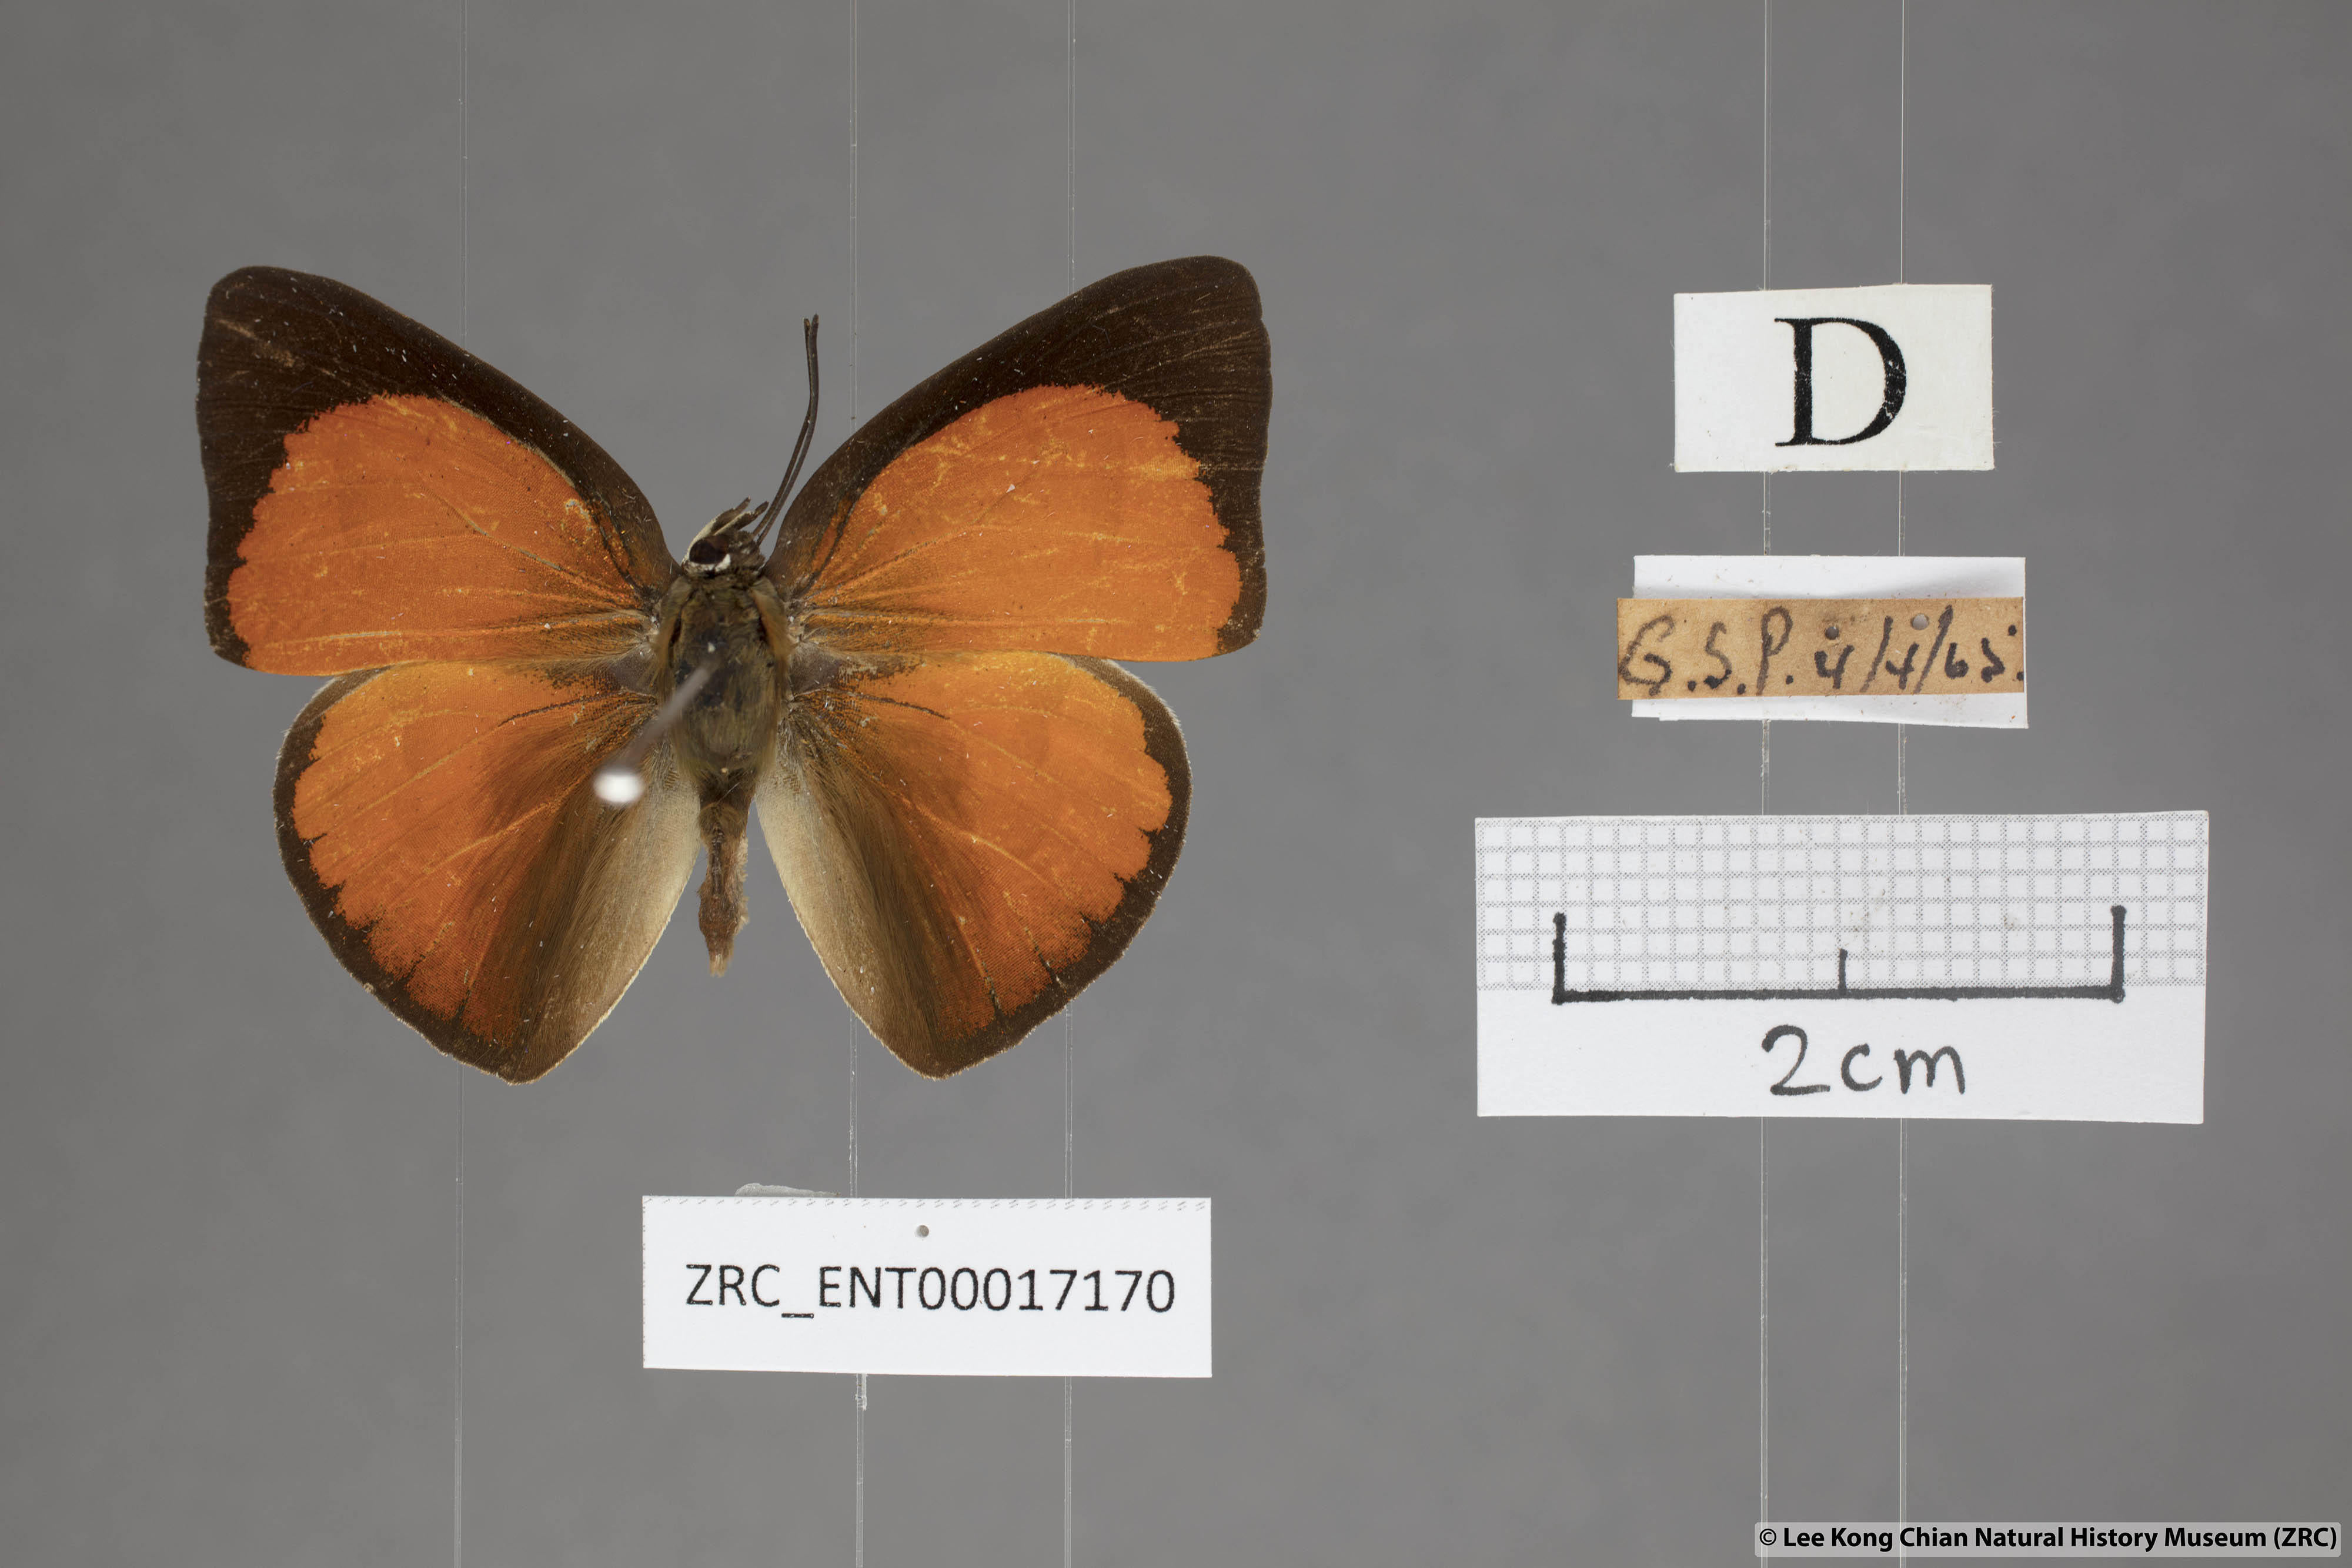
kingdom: Animalia
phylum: Arthropoda
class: Insecta
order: Lepidoptera
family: Lycaenidae
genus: Curetis
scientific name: Curetis tagalica
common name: Southern sunbeam
